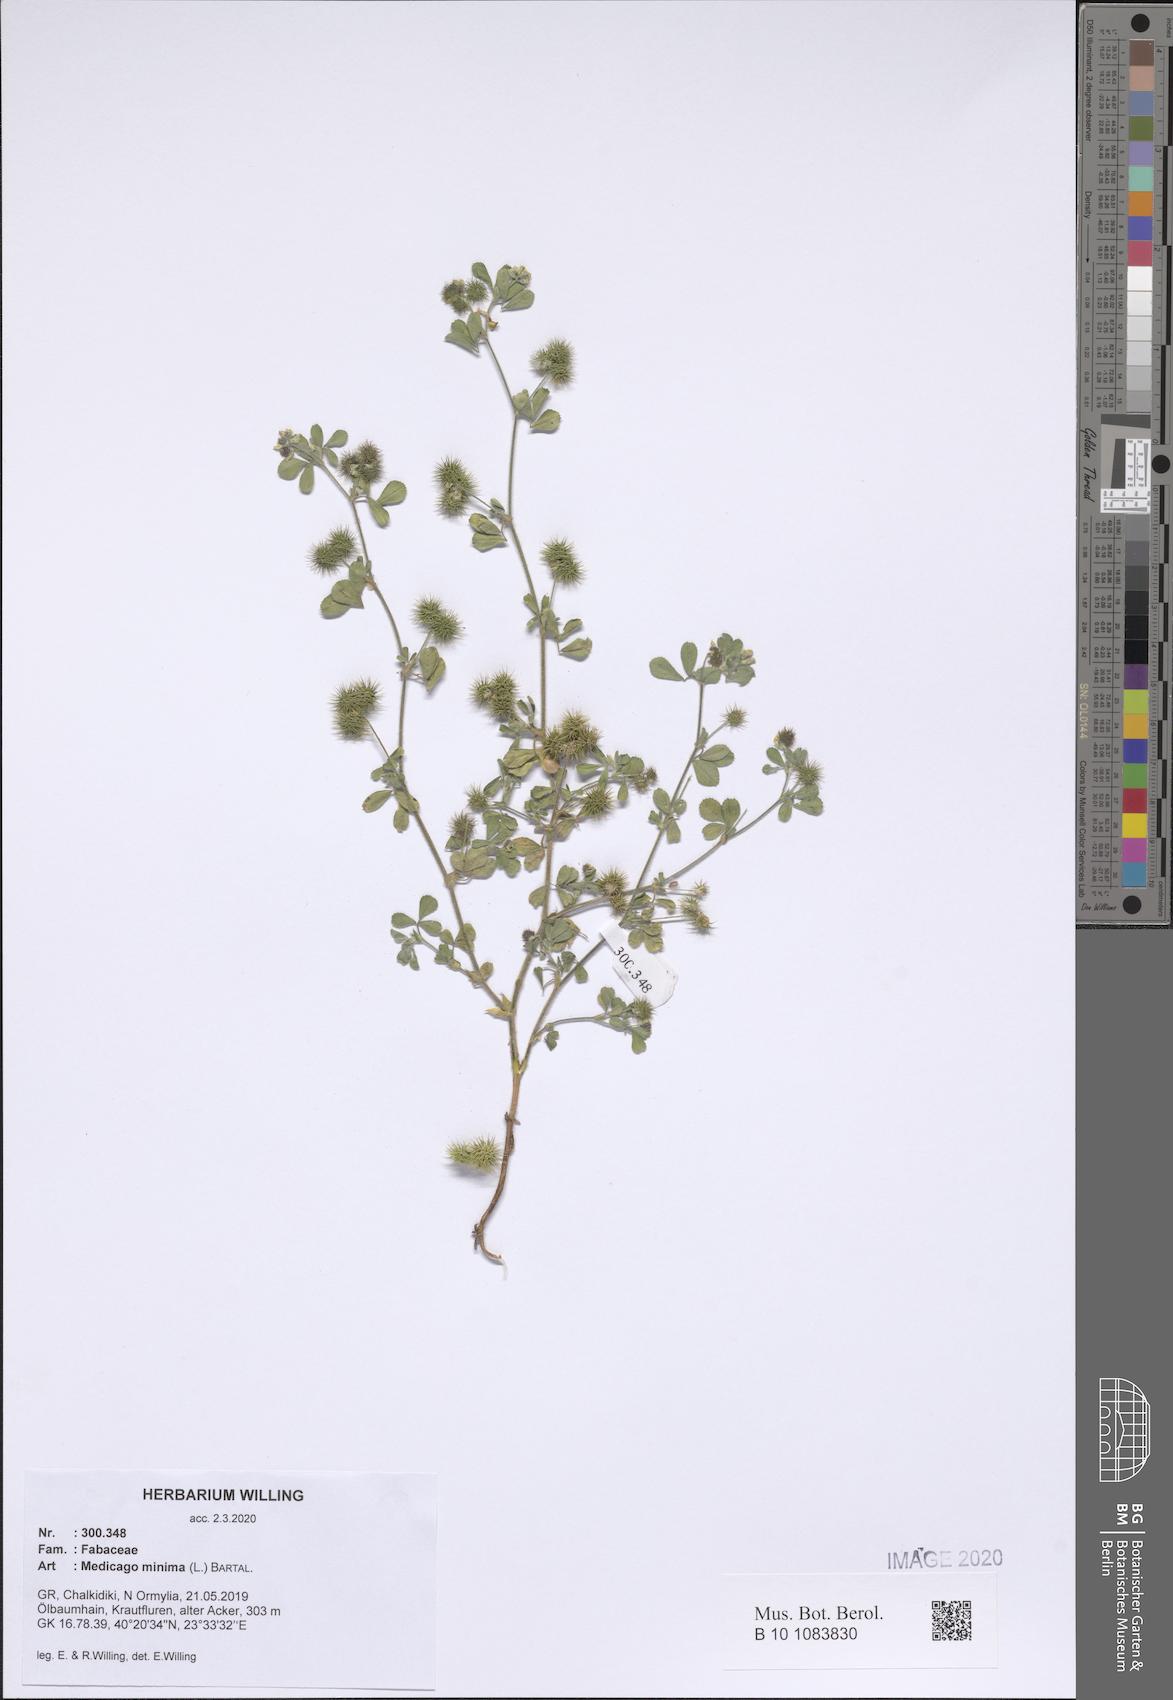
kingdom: Plantae
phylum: Tracheophyta
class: Magnoliopsida
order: Fabales
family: Fabaceae
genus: Medicago
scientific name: Medicago minima
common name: Little bur-clover
